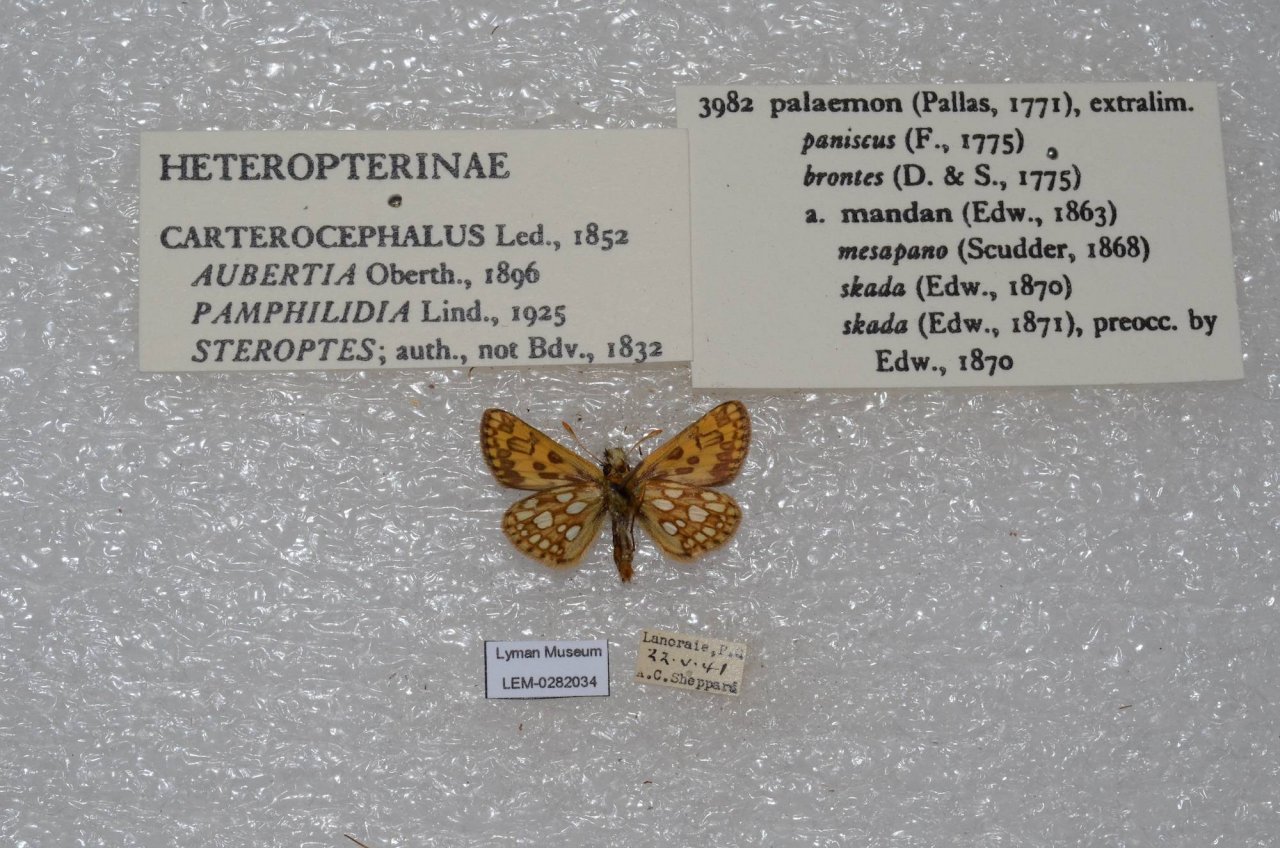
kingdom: Animalia
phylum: Arthropoda
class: Insecta
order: Lepidoptera
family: Hesperiidae
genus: Carterocephalus
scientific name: Carterocephalus palaemon
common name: Chequered Skipper
